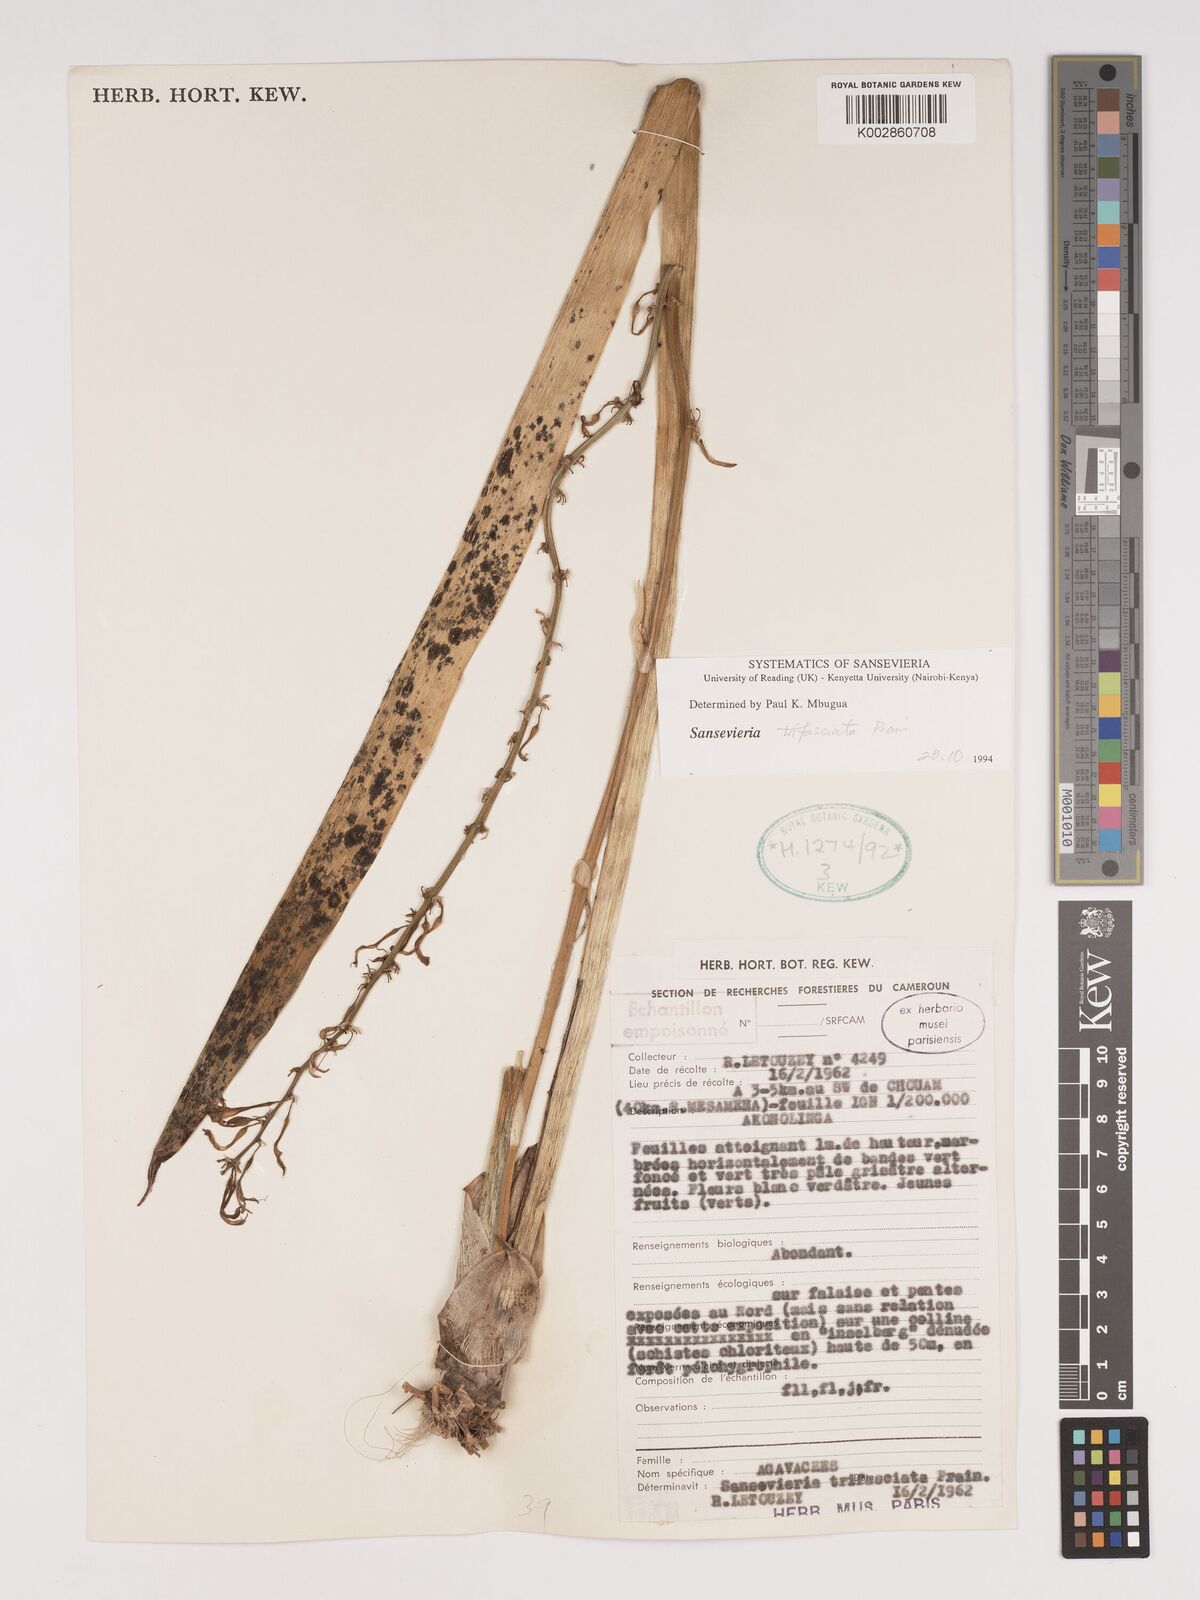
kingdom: Plantae
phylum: Tracheophyta
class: Liliopsida
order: Asparagales
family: Asparagaceae
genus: Dracaena
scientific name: Dracaena trifasciata
